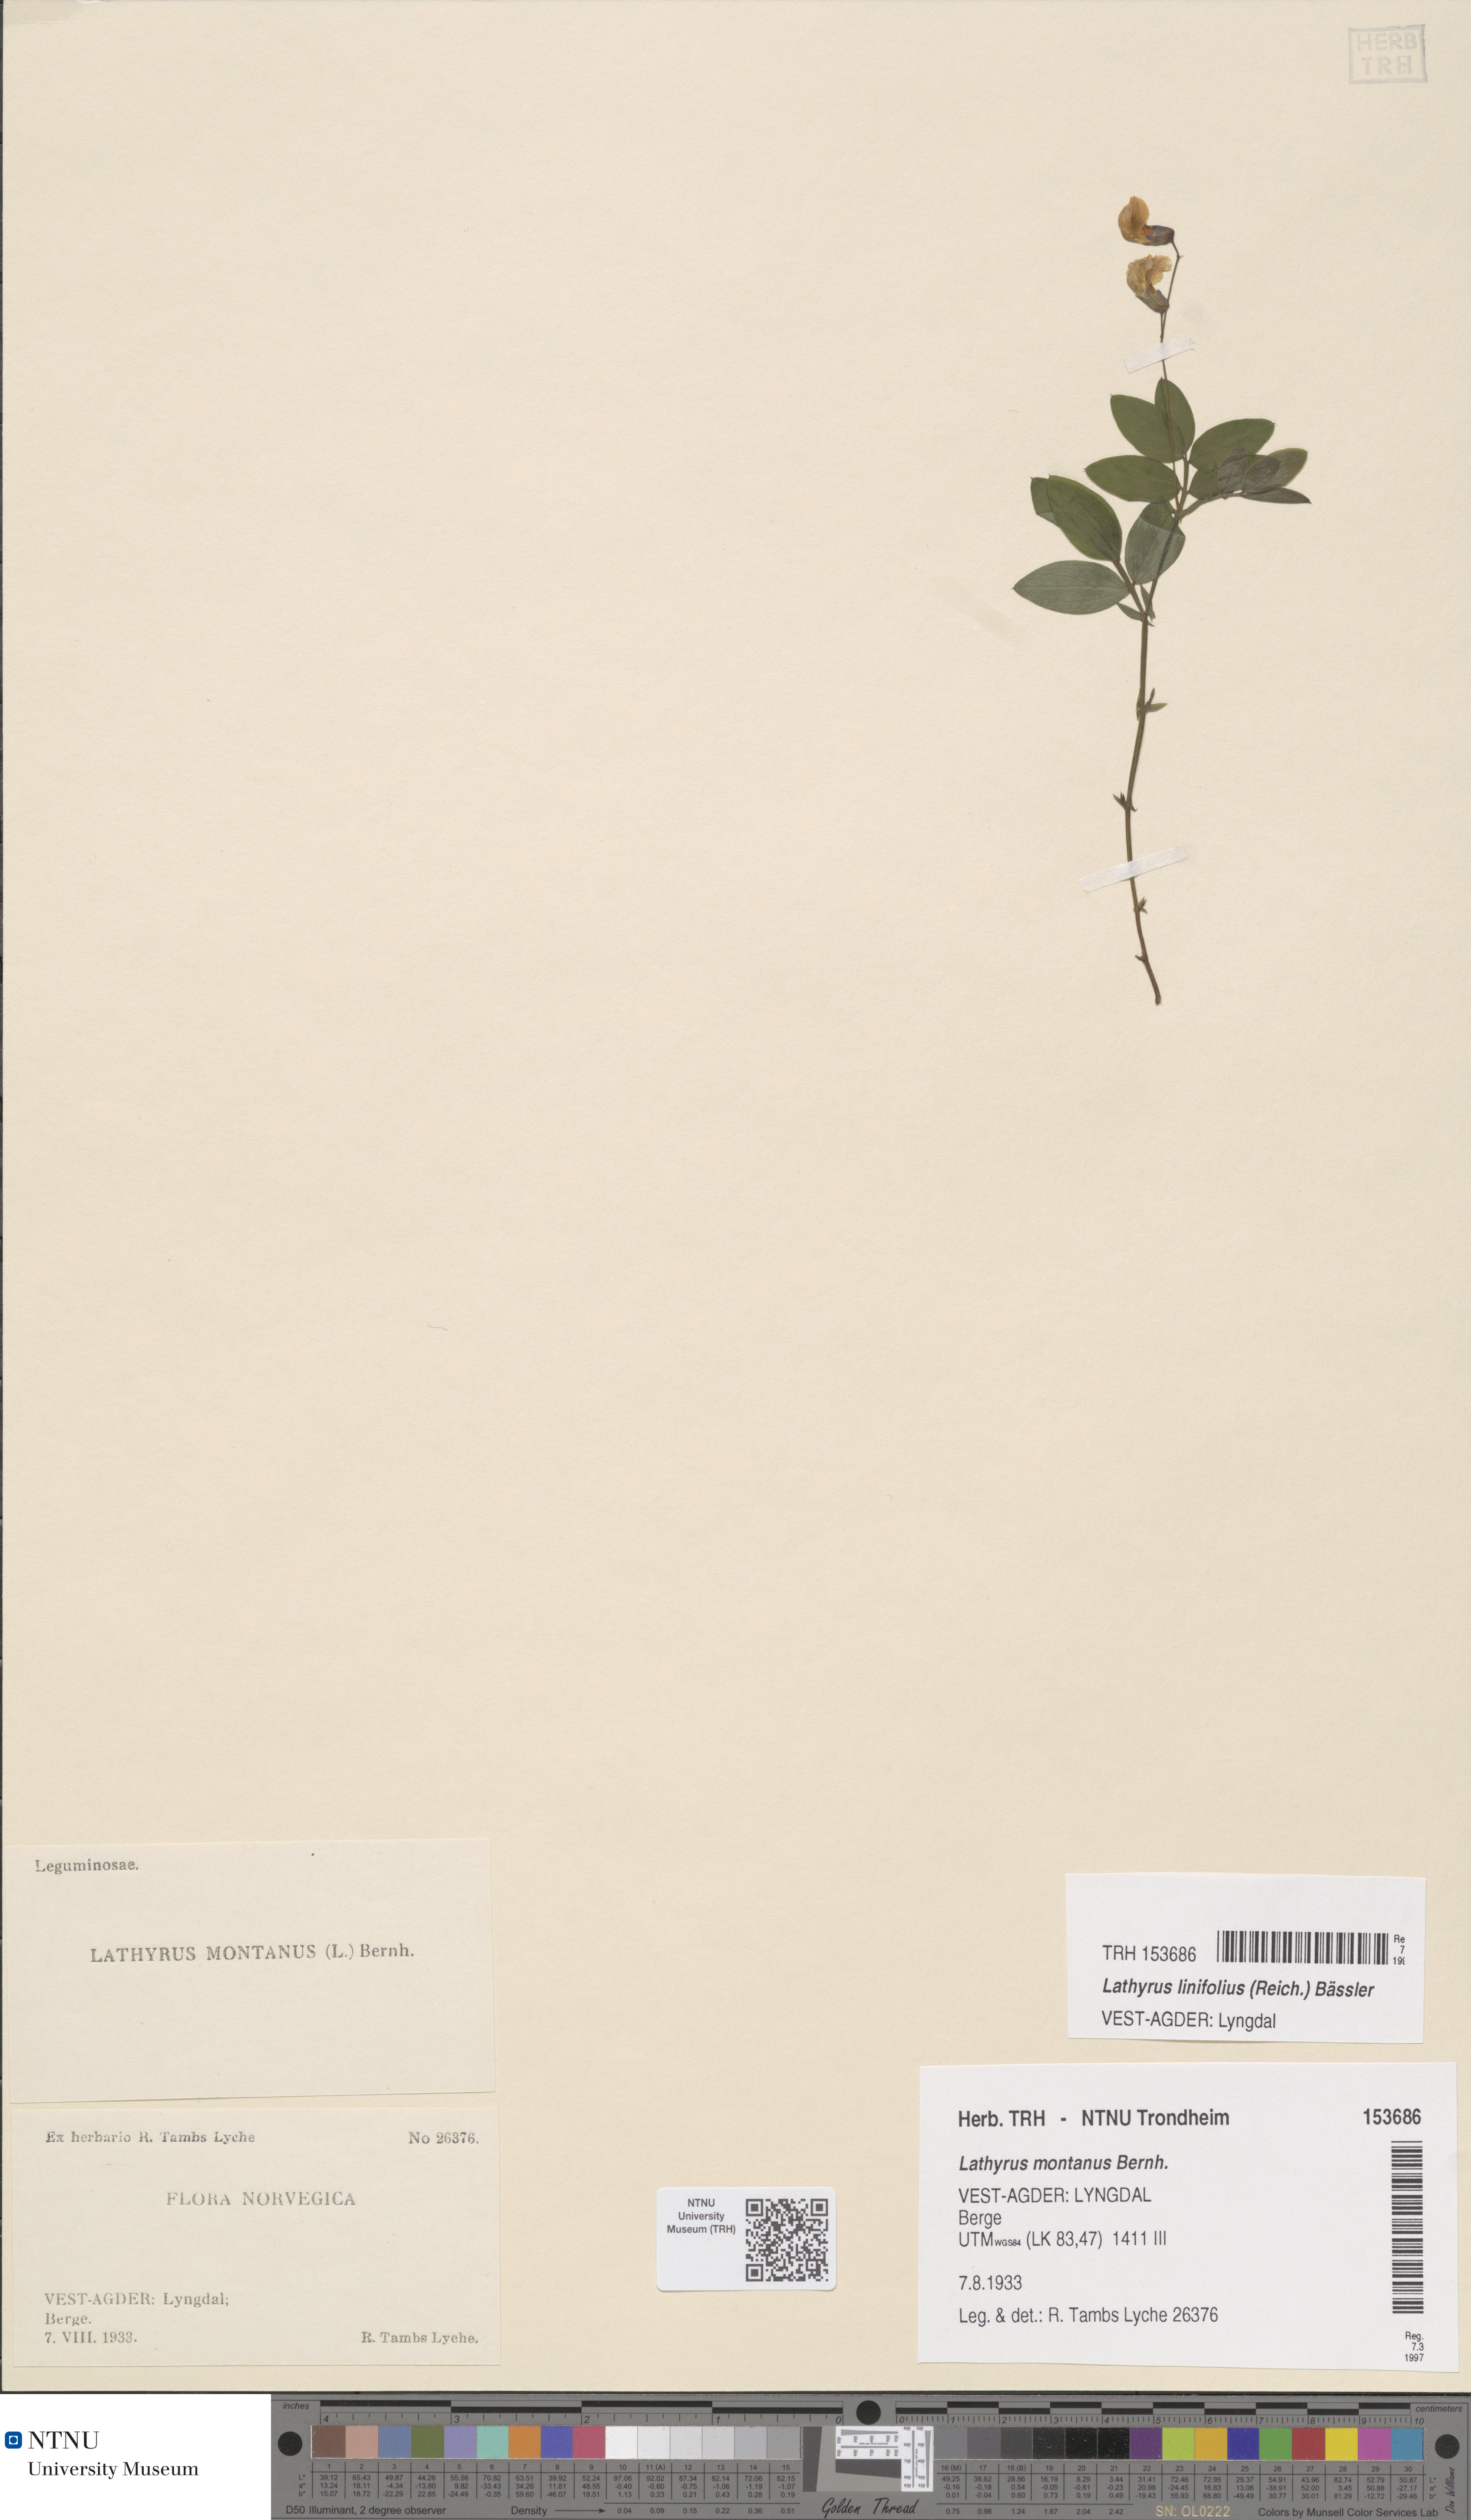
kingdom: Plantae
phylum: Tracheophyta
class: Magnoliopsida
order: Fabales
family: Fabaceae
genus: Lathyrus
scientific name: Lathyrus linifolius
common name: Bitter-vetch
